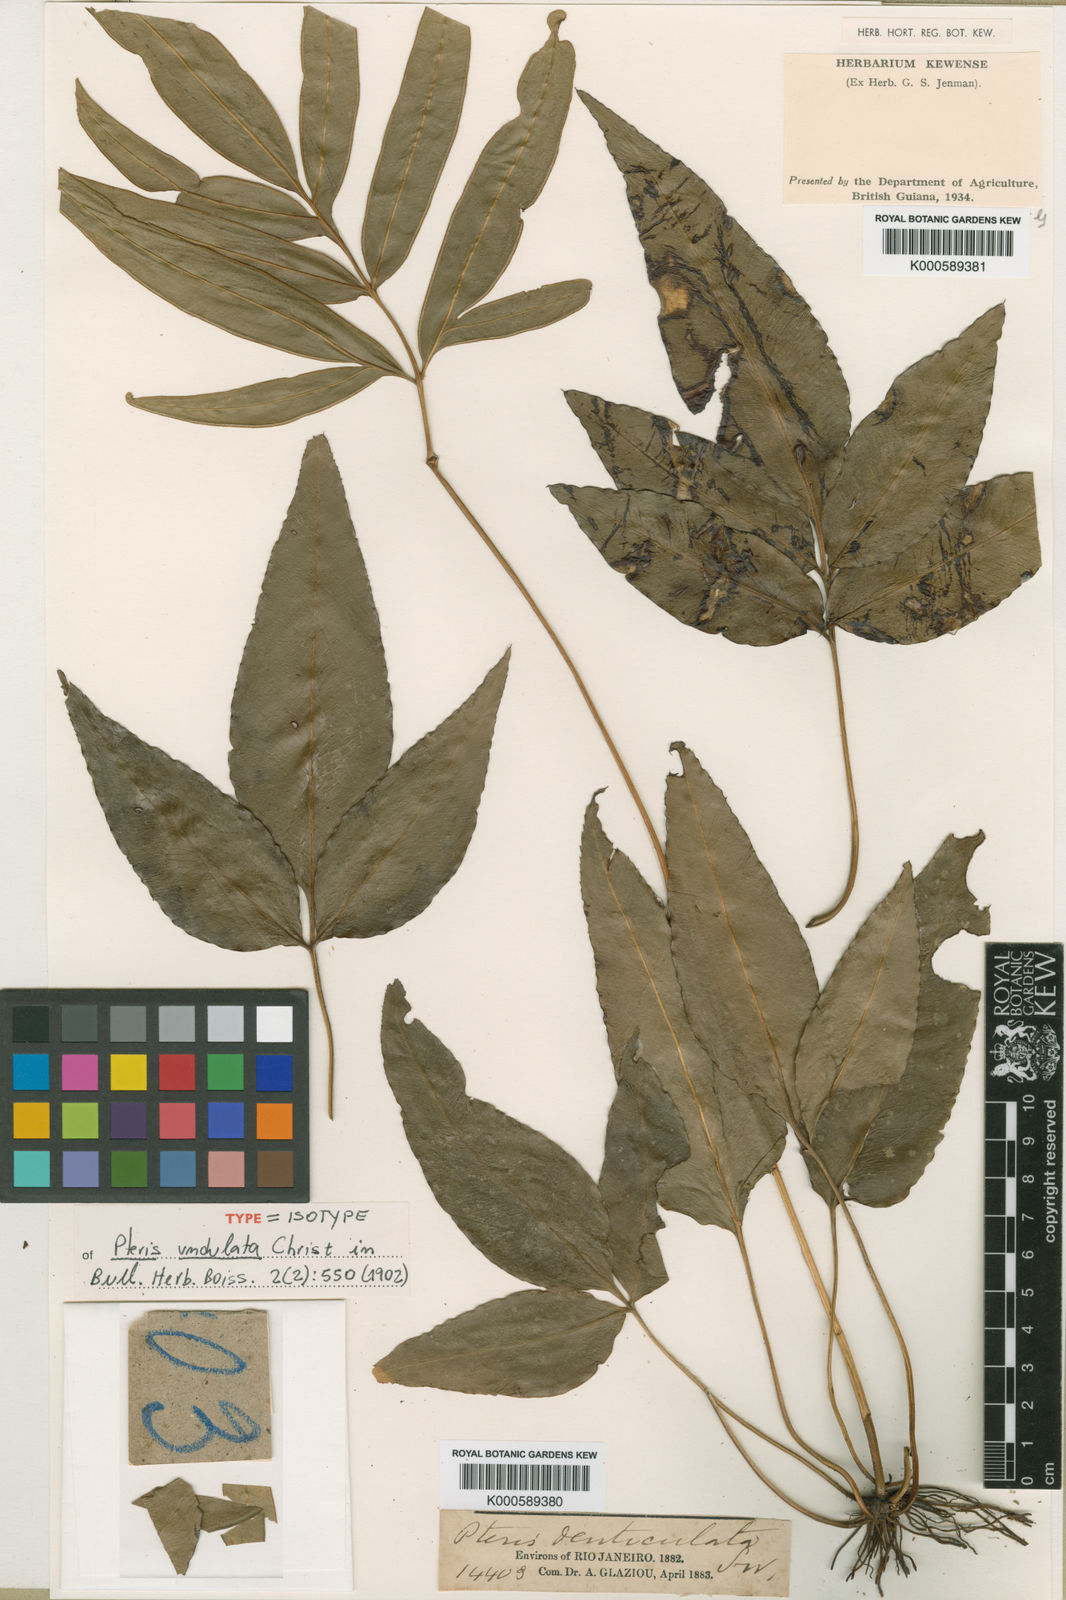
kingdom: Plantae
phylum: Tracheophyta
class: Polypodiopsida
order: Polypodiales
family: Pteridaceae
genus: Pteris
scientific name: Pteris brasiliensis
